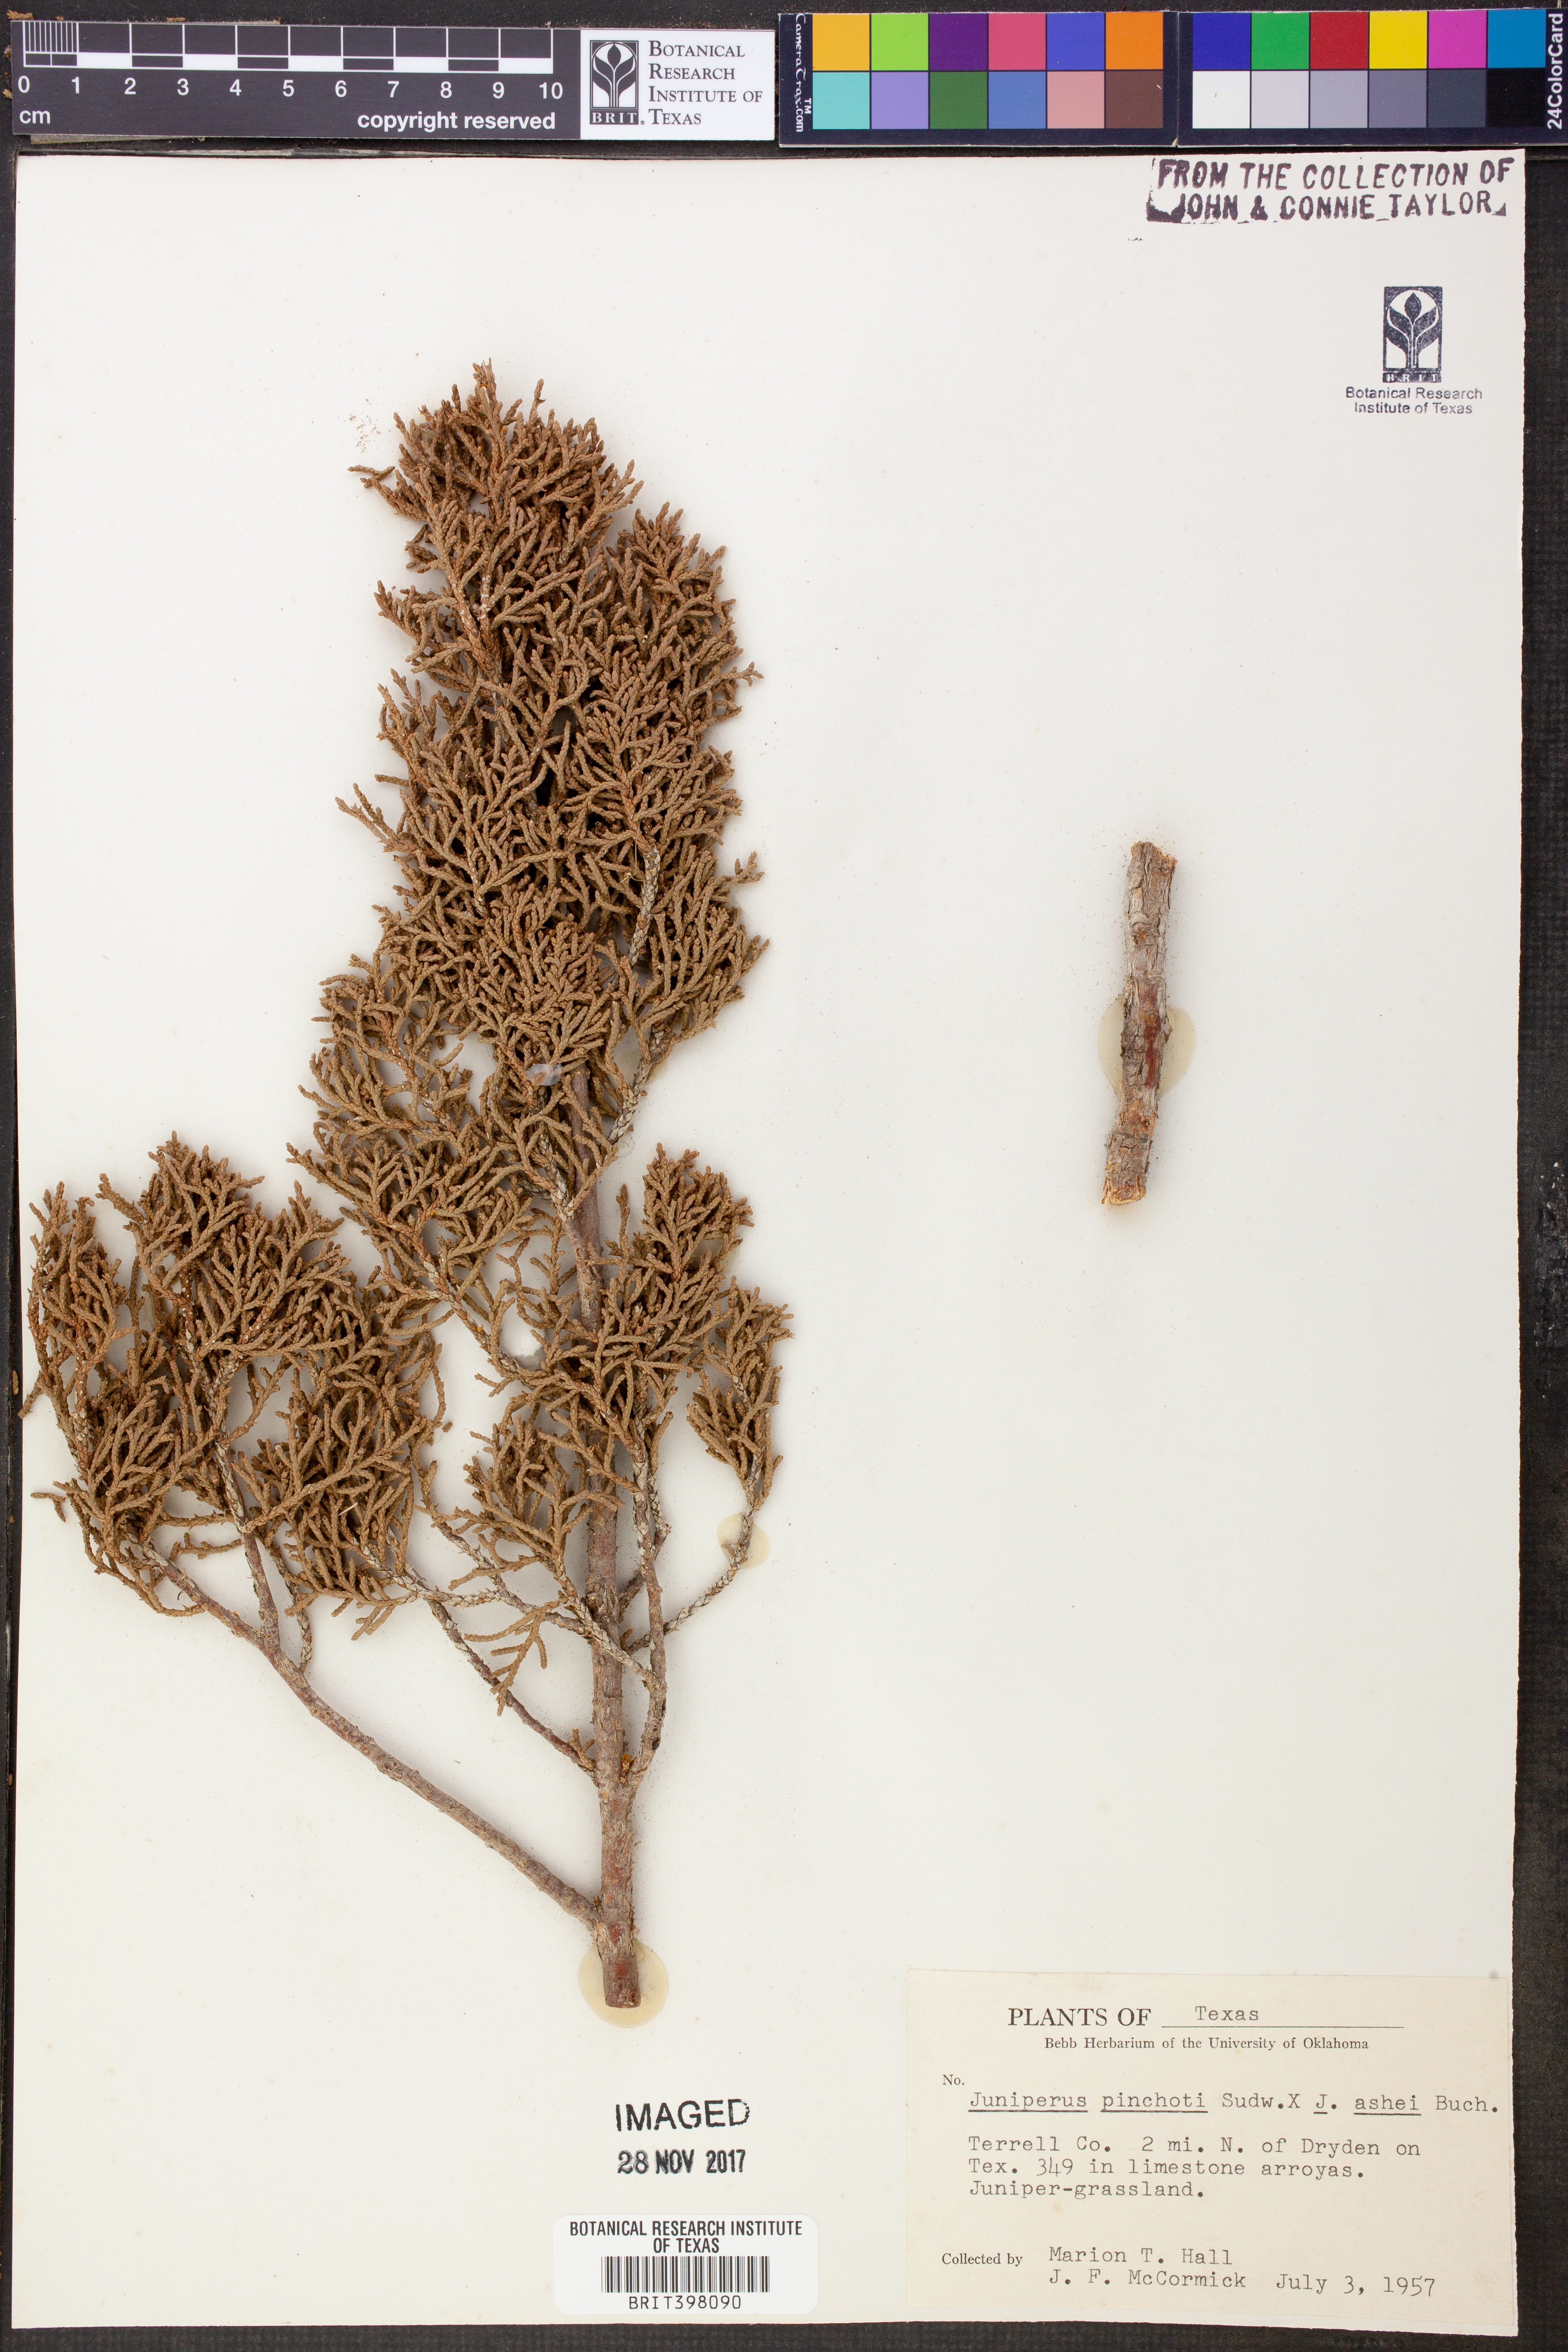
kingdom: Plantae
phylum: Tracheophyta
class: Pinopsida
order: Pinales
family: Cupressaceae
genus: Juniperus
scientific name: Juniperus pinchotii
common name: Pinchot juniper
